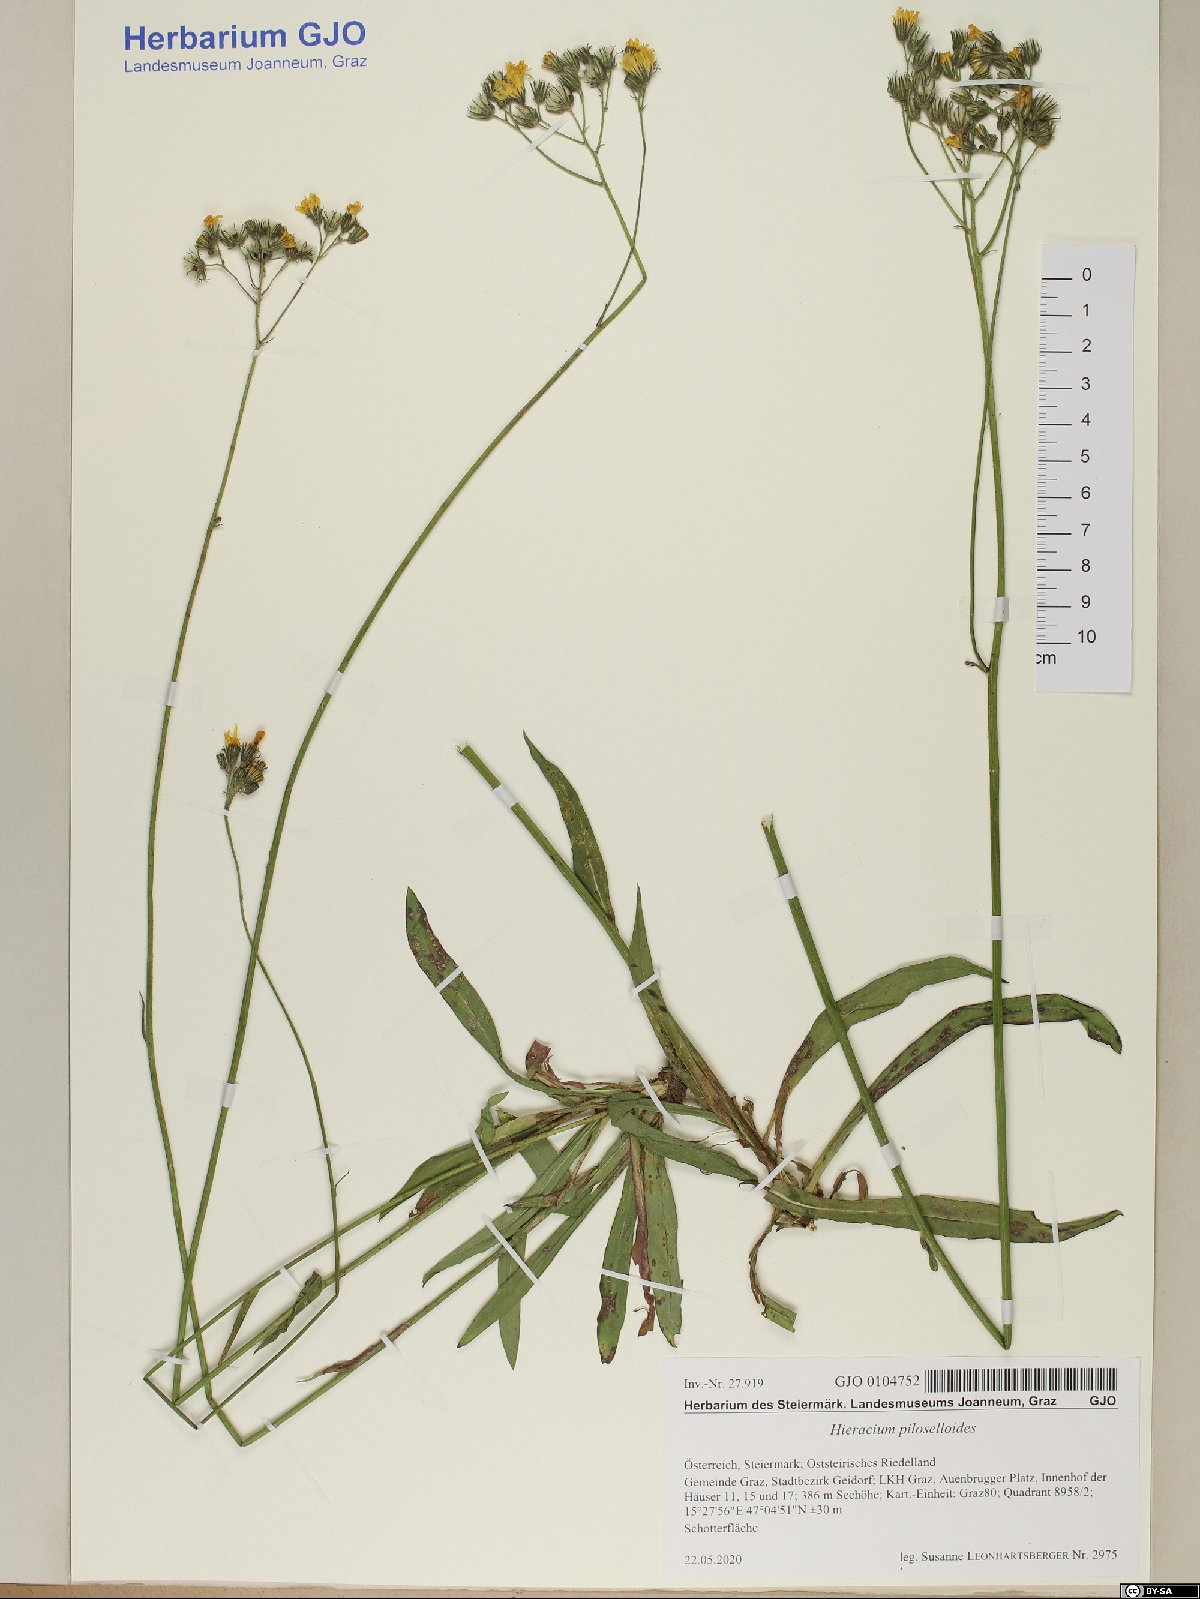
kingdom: Plantae
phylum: Tracheophyta
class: Magnoliopsida
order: Asterales
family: Asteraceae
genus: Pilosella
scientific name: Pilosella piloselloides
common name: Glaucous king-devil
